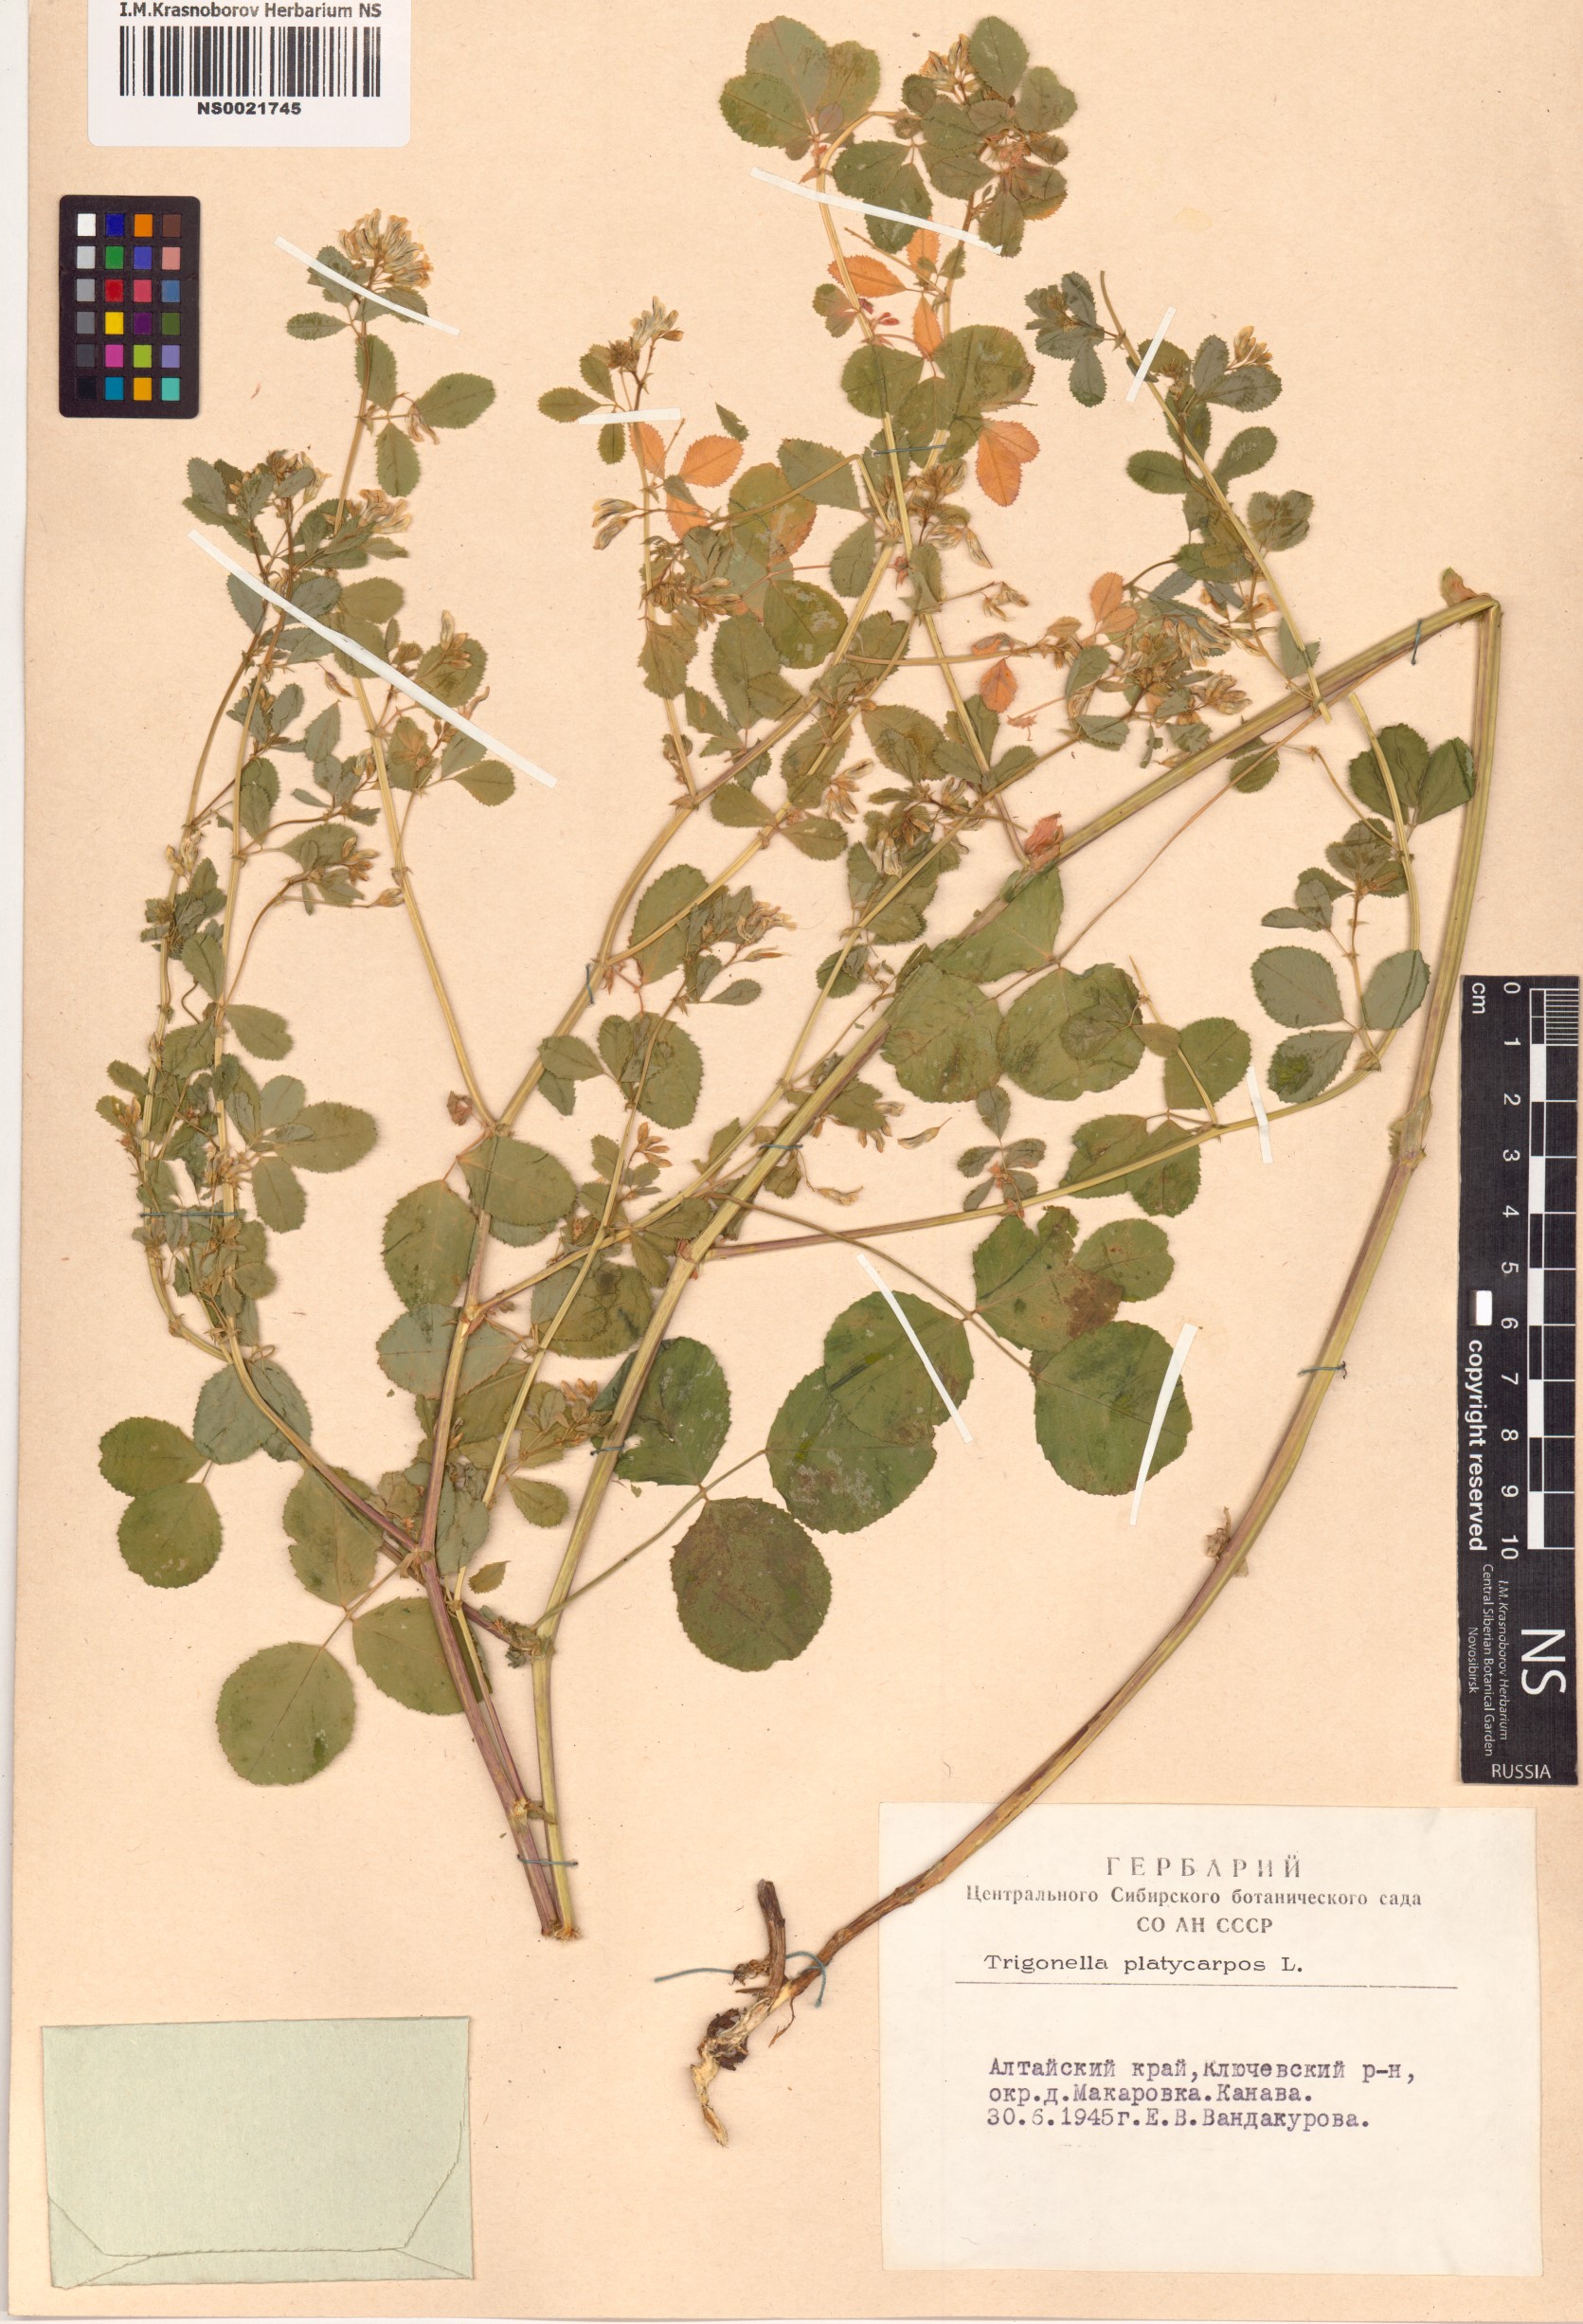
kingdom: Plantae
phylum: Tracheophyta
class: Magnoliopsida
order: Fabales
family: Fabaceae
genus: Medicago
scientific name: Medicago platycarpos
